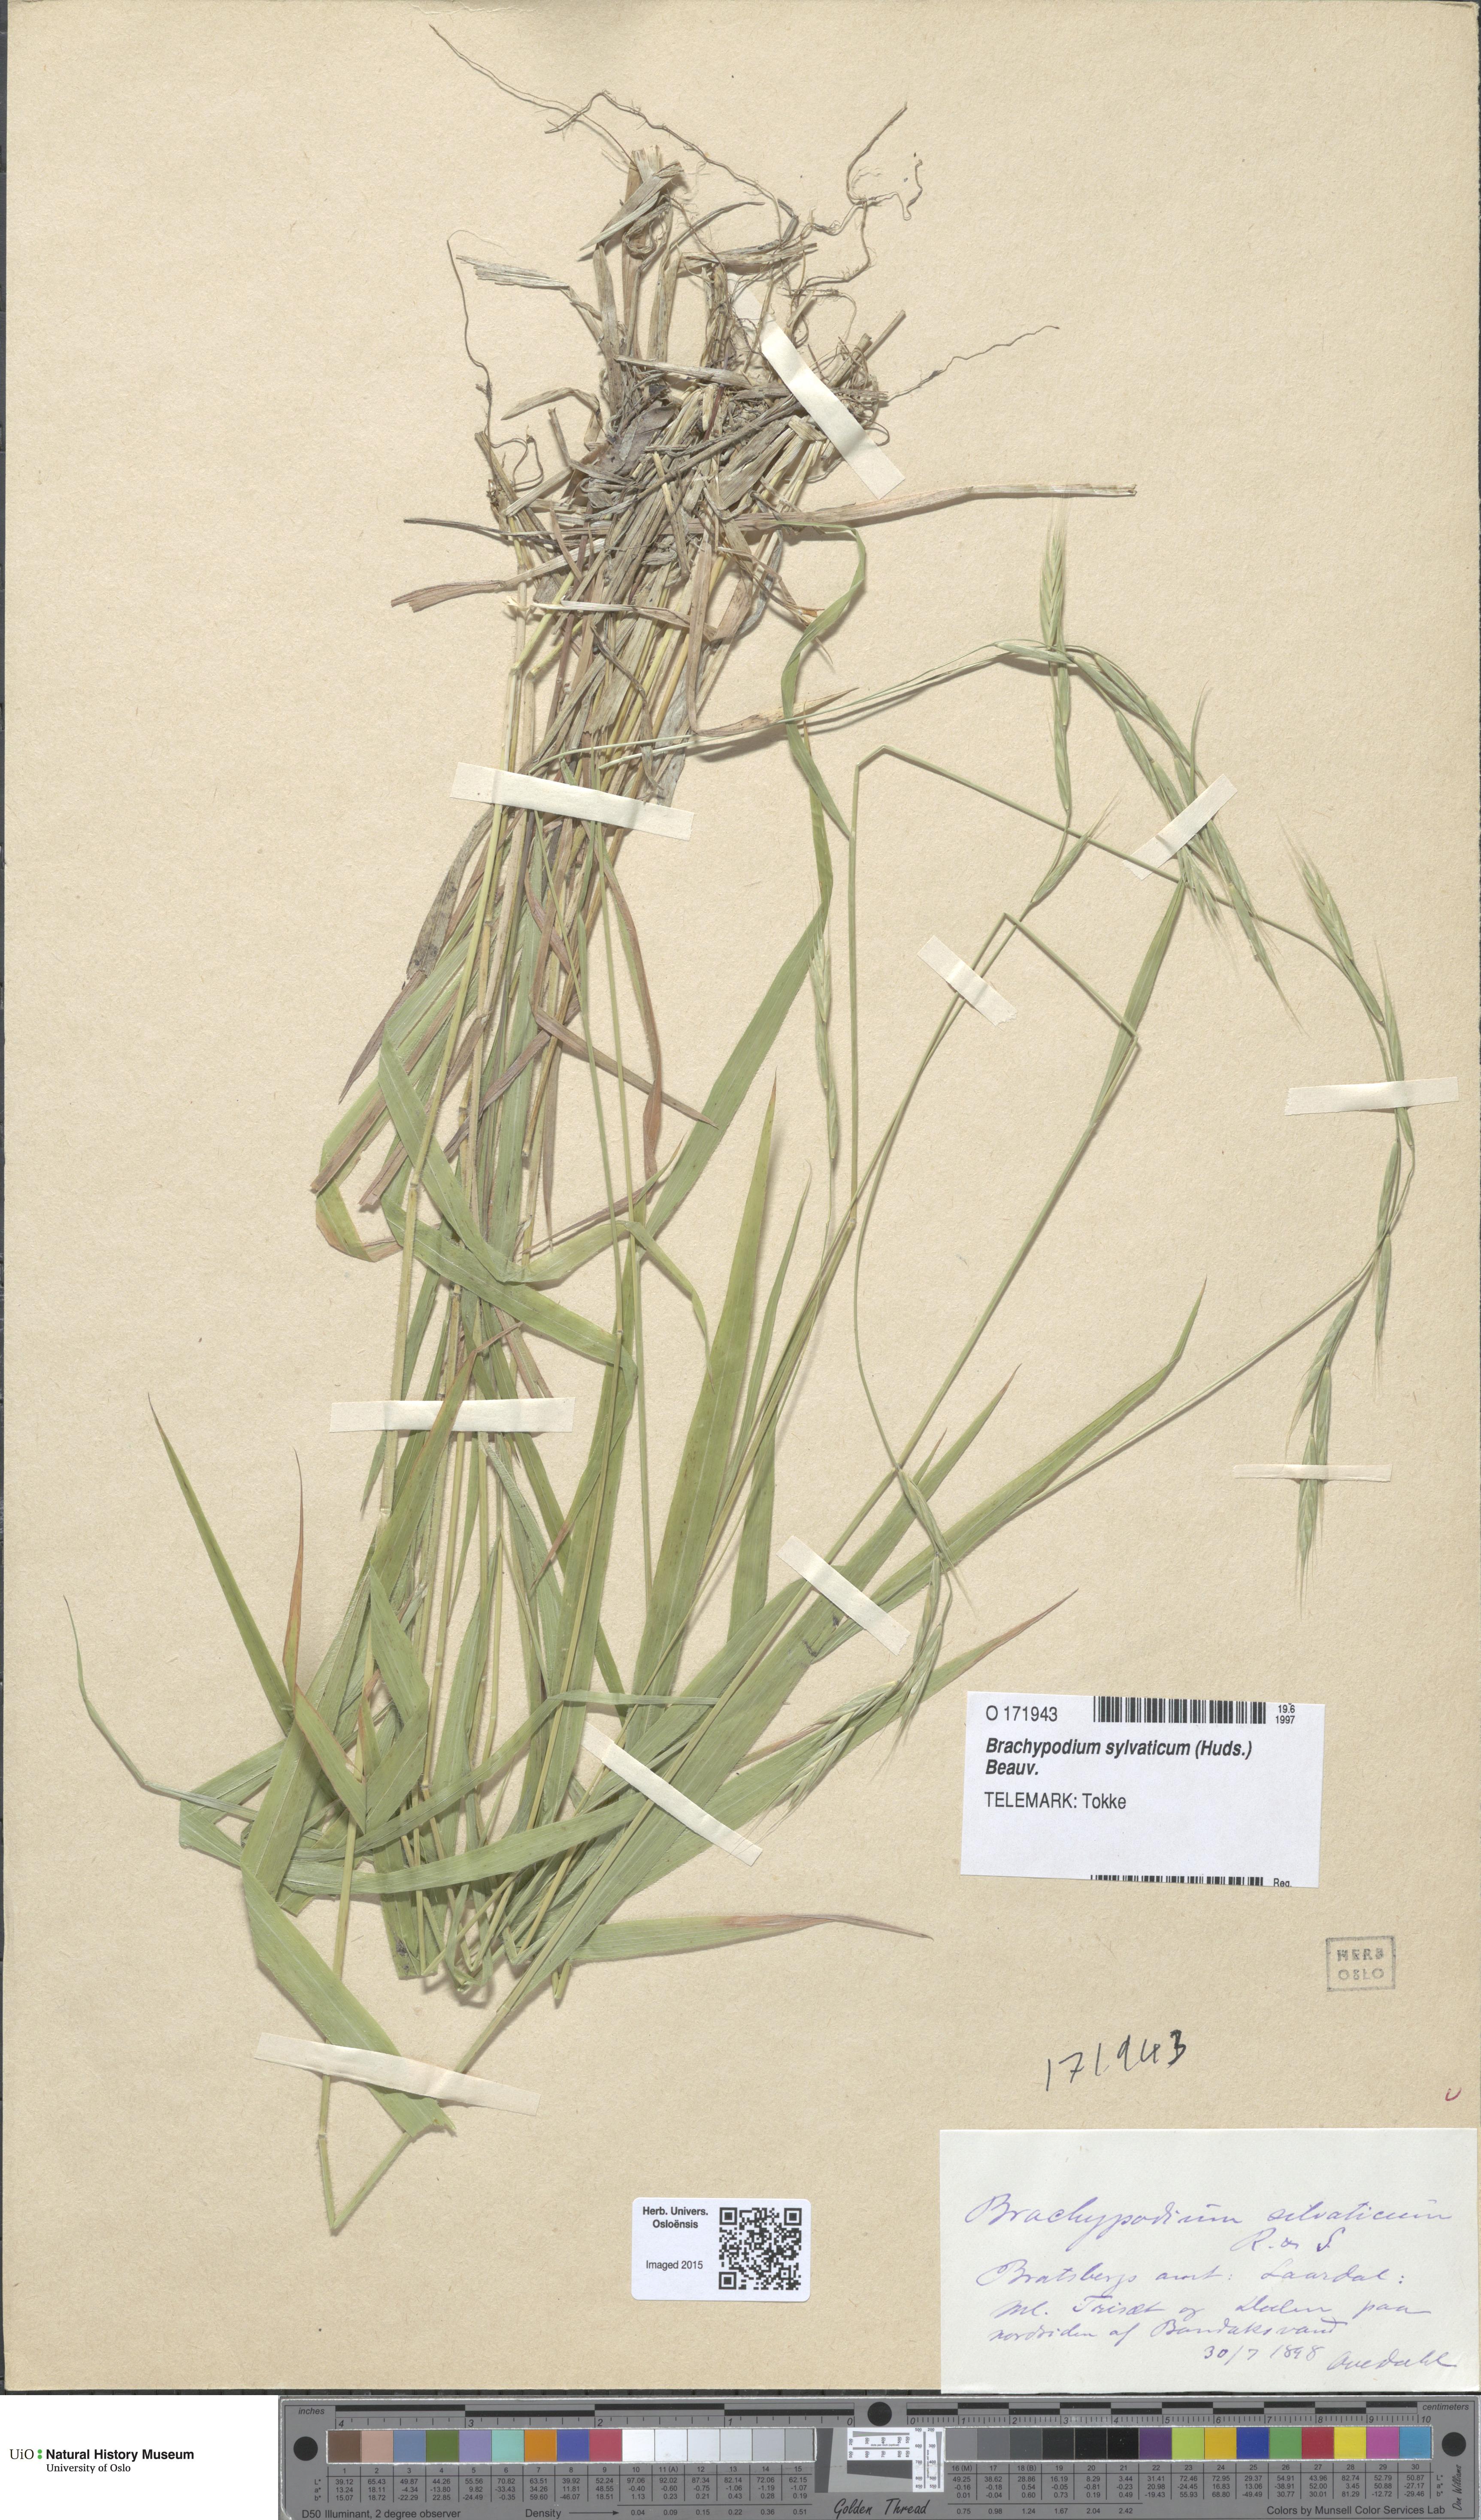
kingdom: Plantae
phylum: Tracheophyta
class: Liliopsida
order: Poales
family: Poaceae
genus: Brachypodium
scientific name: Brachypodium sylvaticum
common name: False-brome
